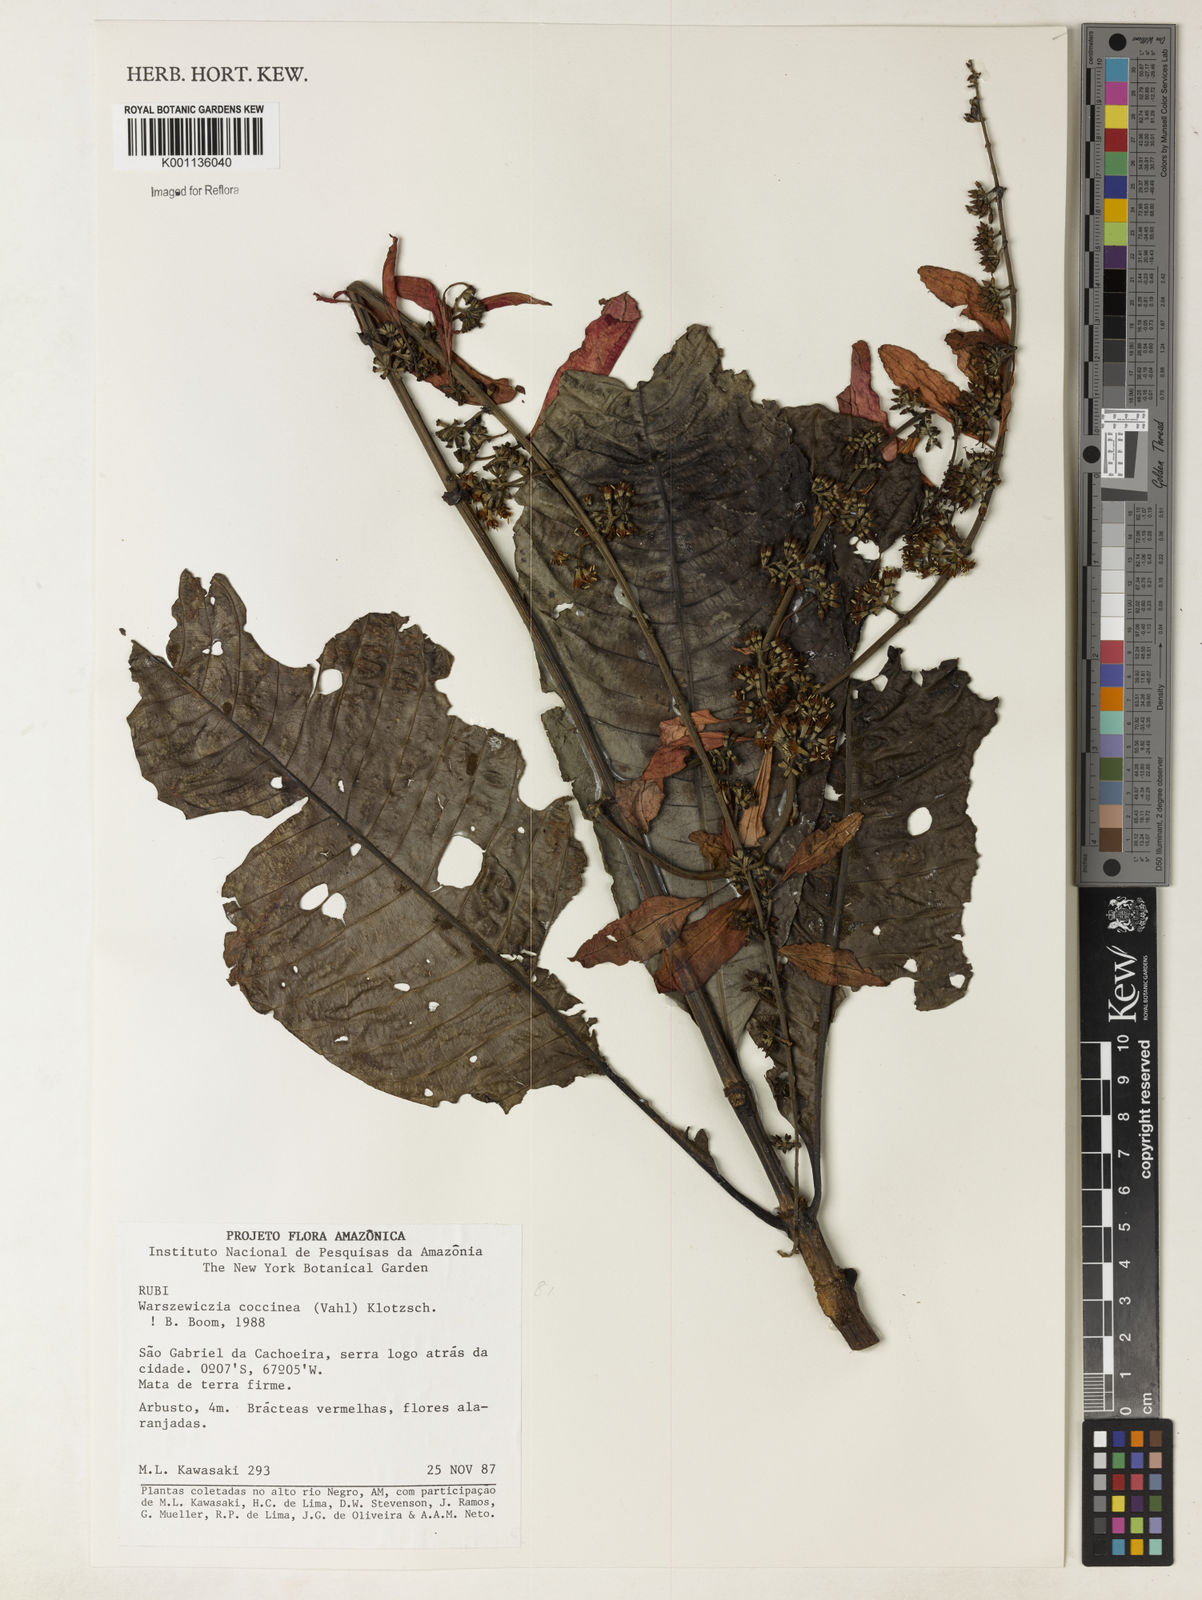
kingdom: Plantae
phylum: Tracheophyta
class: Magnoliopsida
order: Gentianales
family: Rubiaceae
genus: Warszewiczia
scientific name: Warszewiczia coccinea
